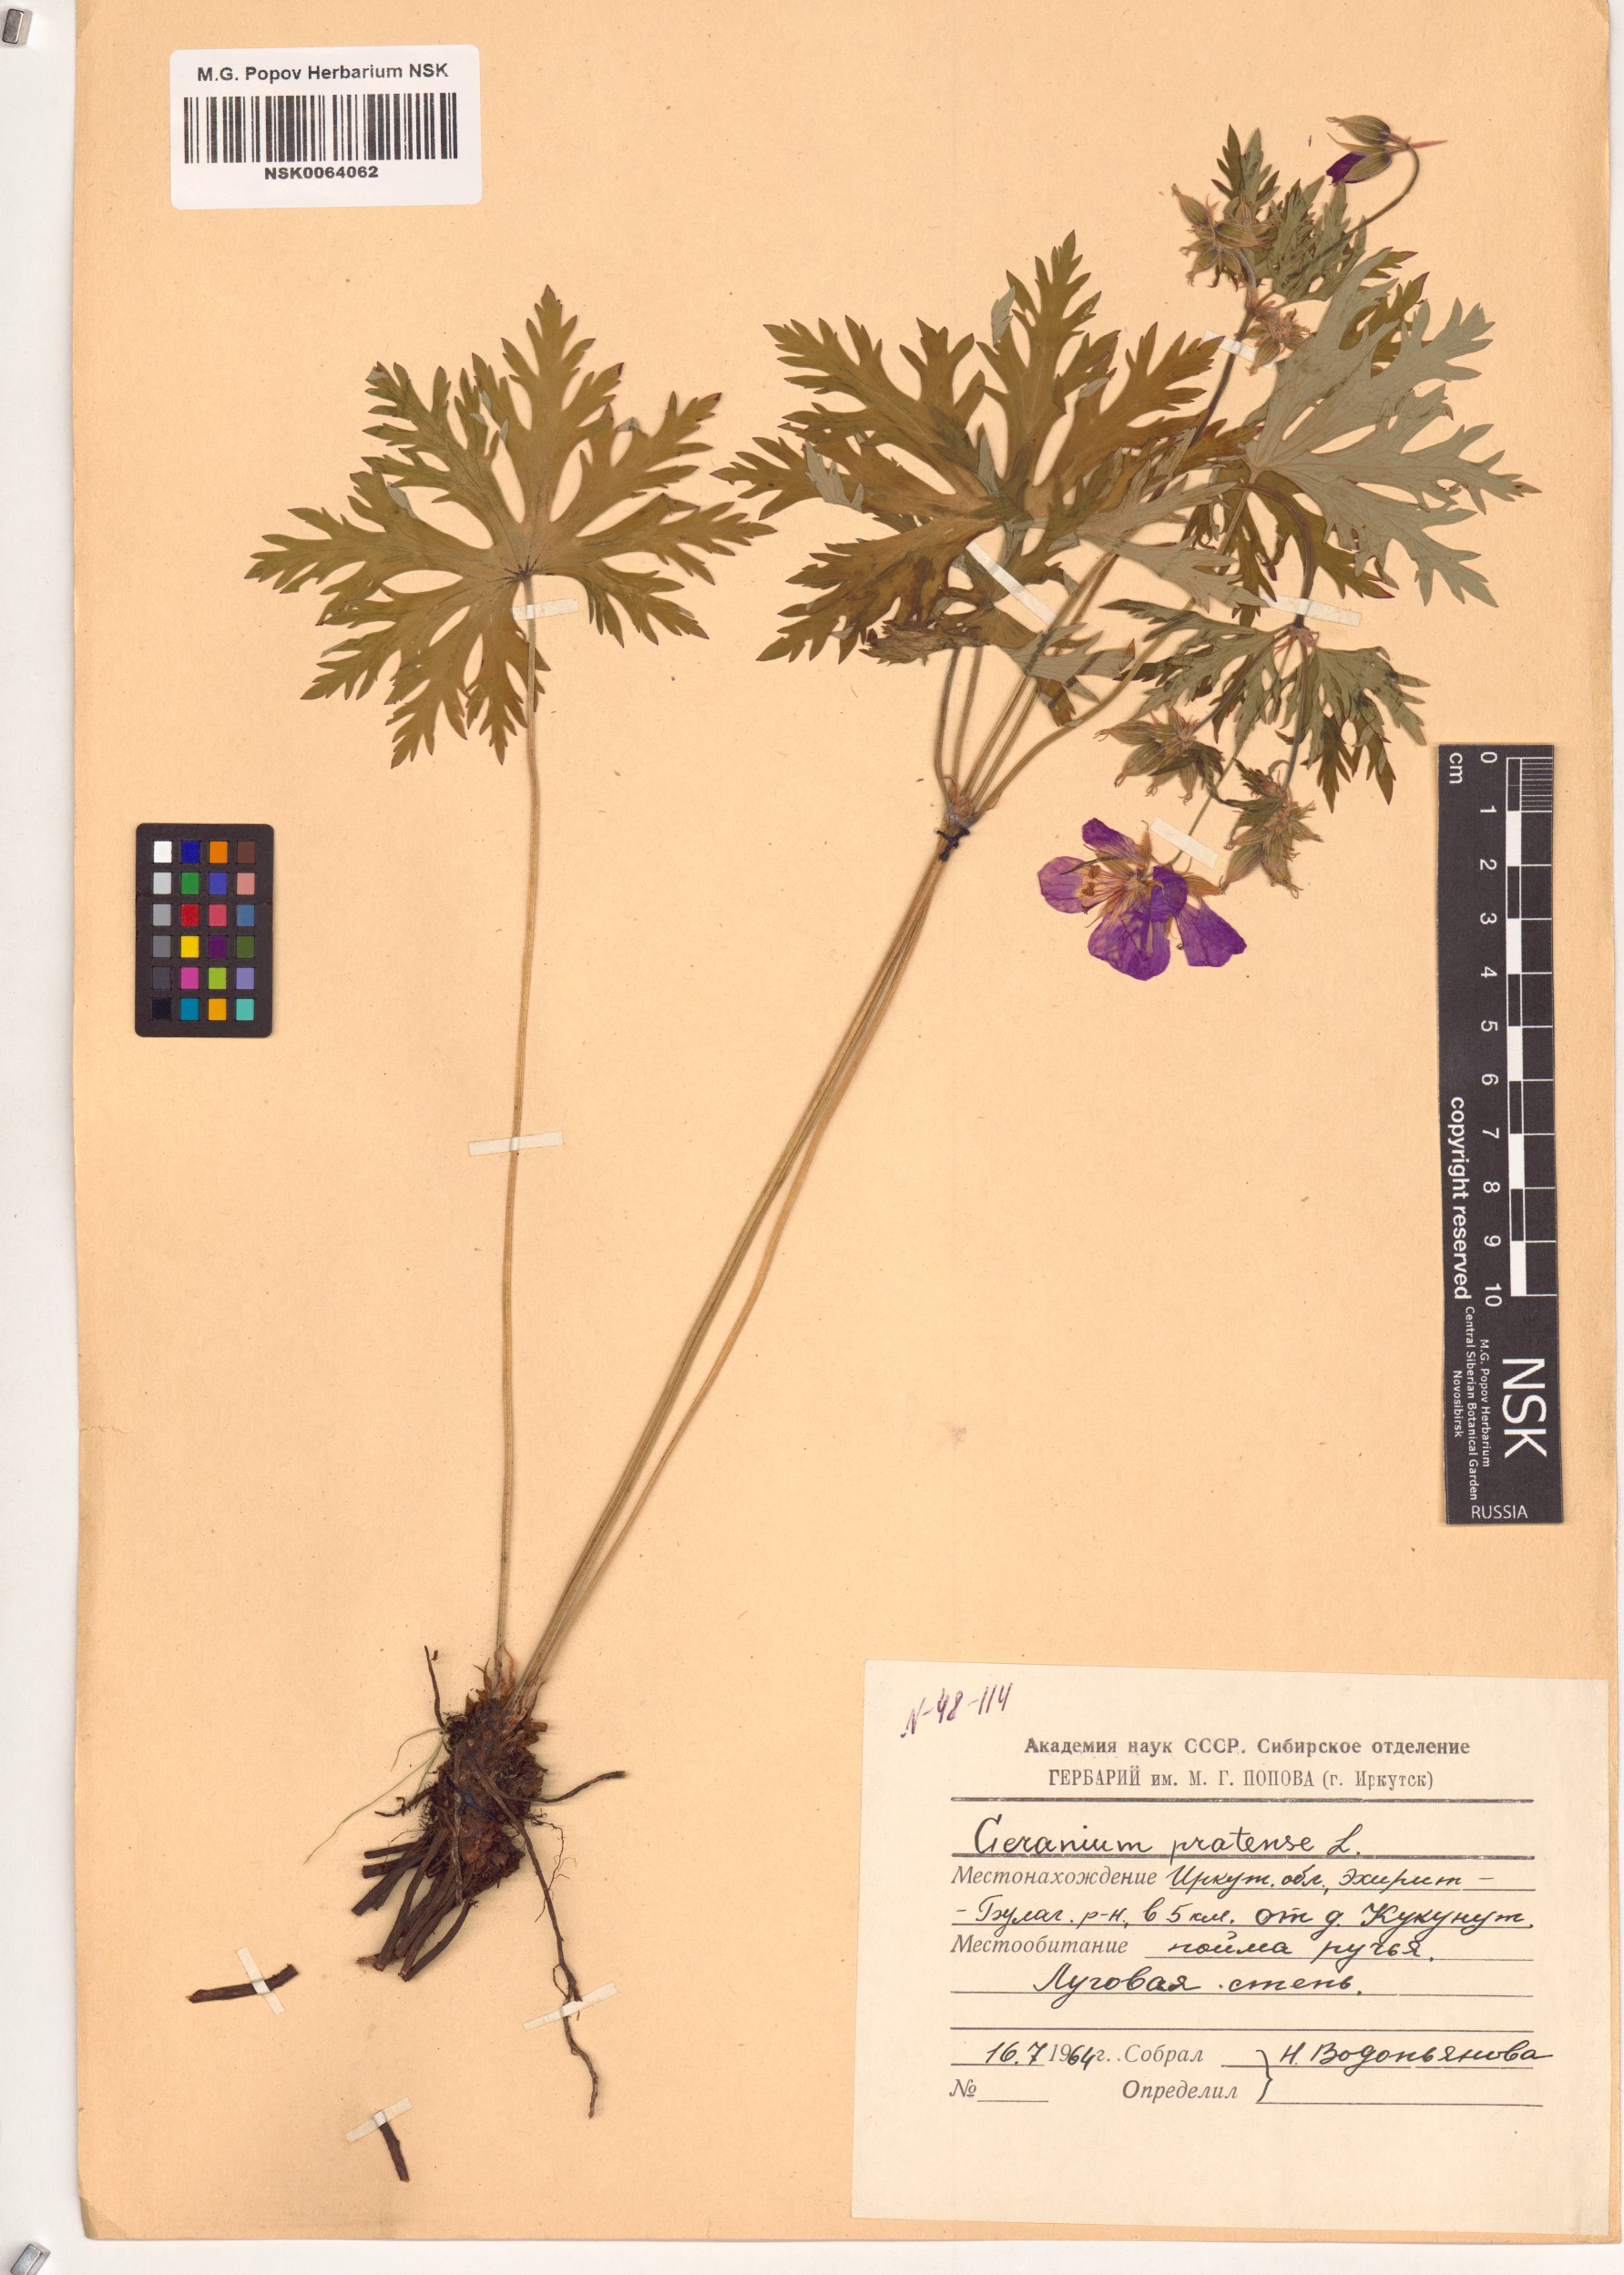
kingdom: Plantae
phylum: Tracheophyta
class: Magnoliopsida
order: Geraniales
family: Geraniaceae
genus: Geranium
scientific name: Geranium pratense
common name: Meadow crane's-bill
